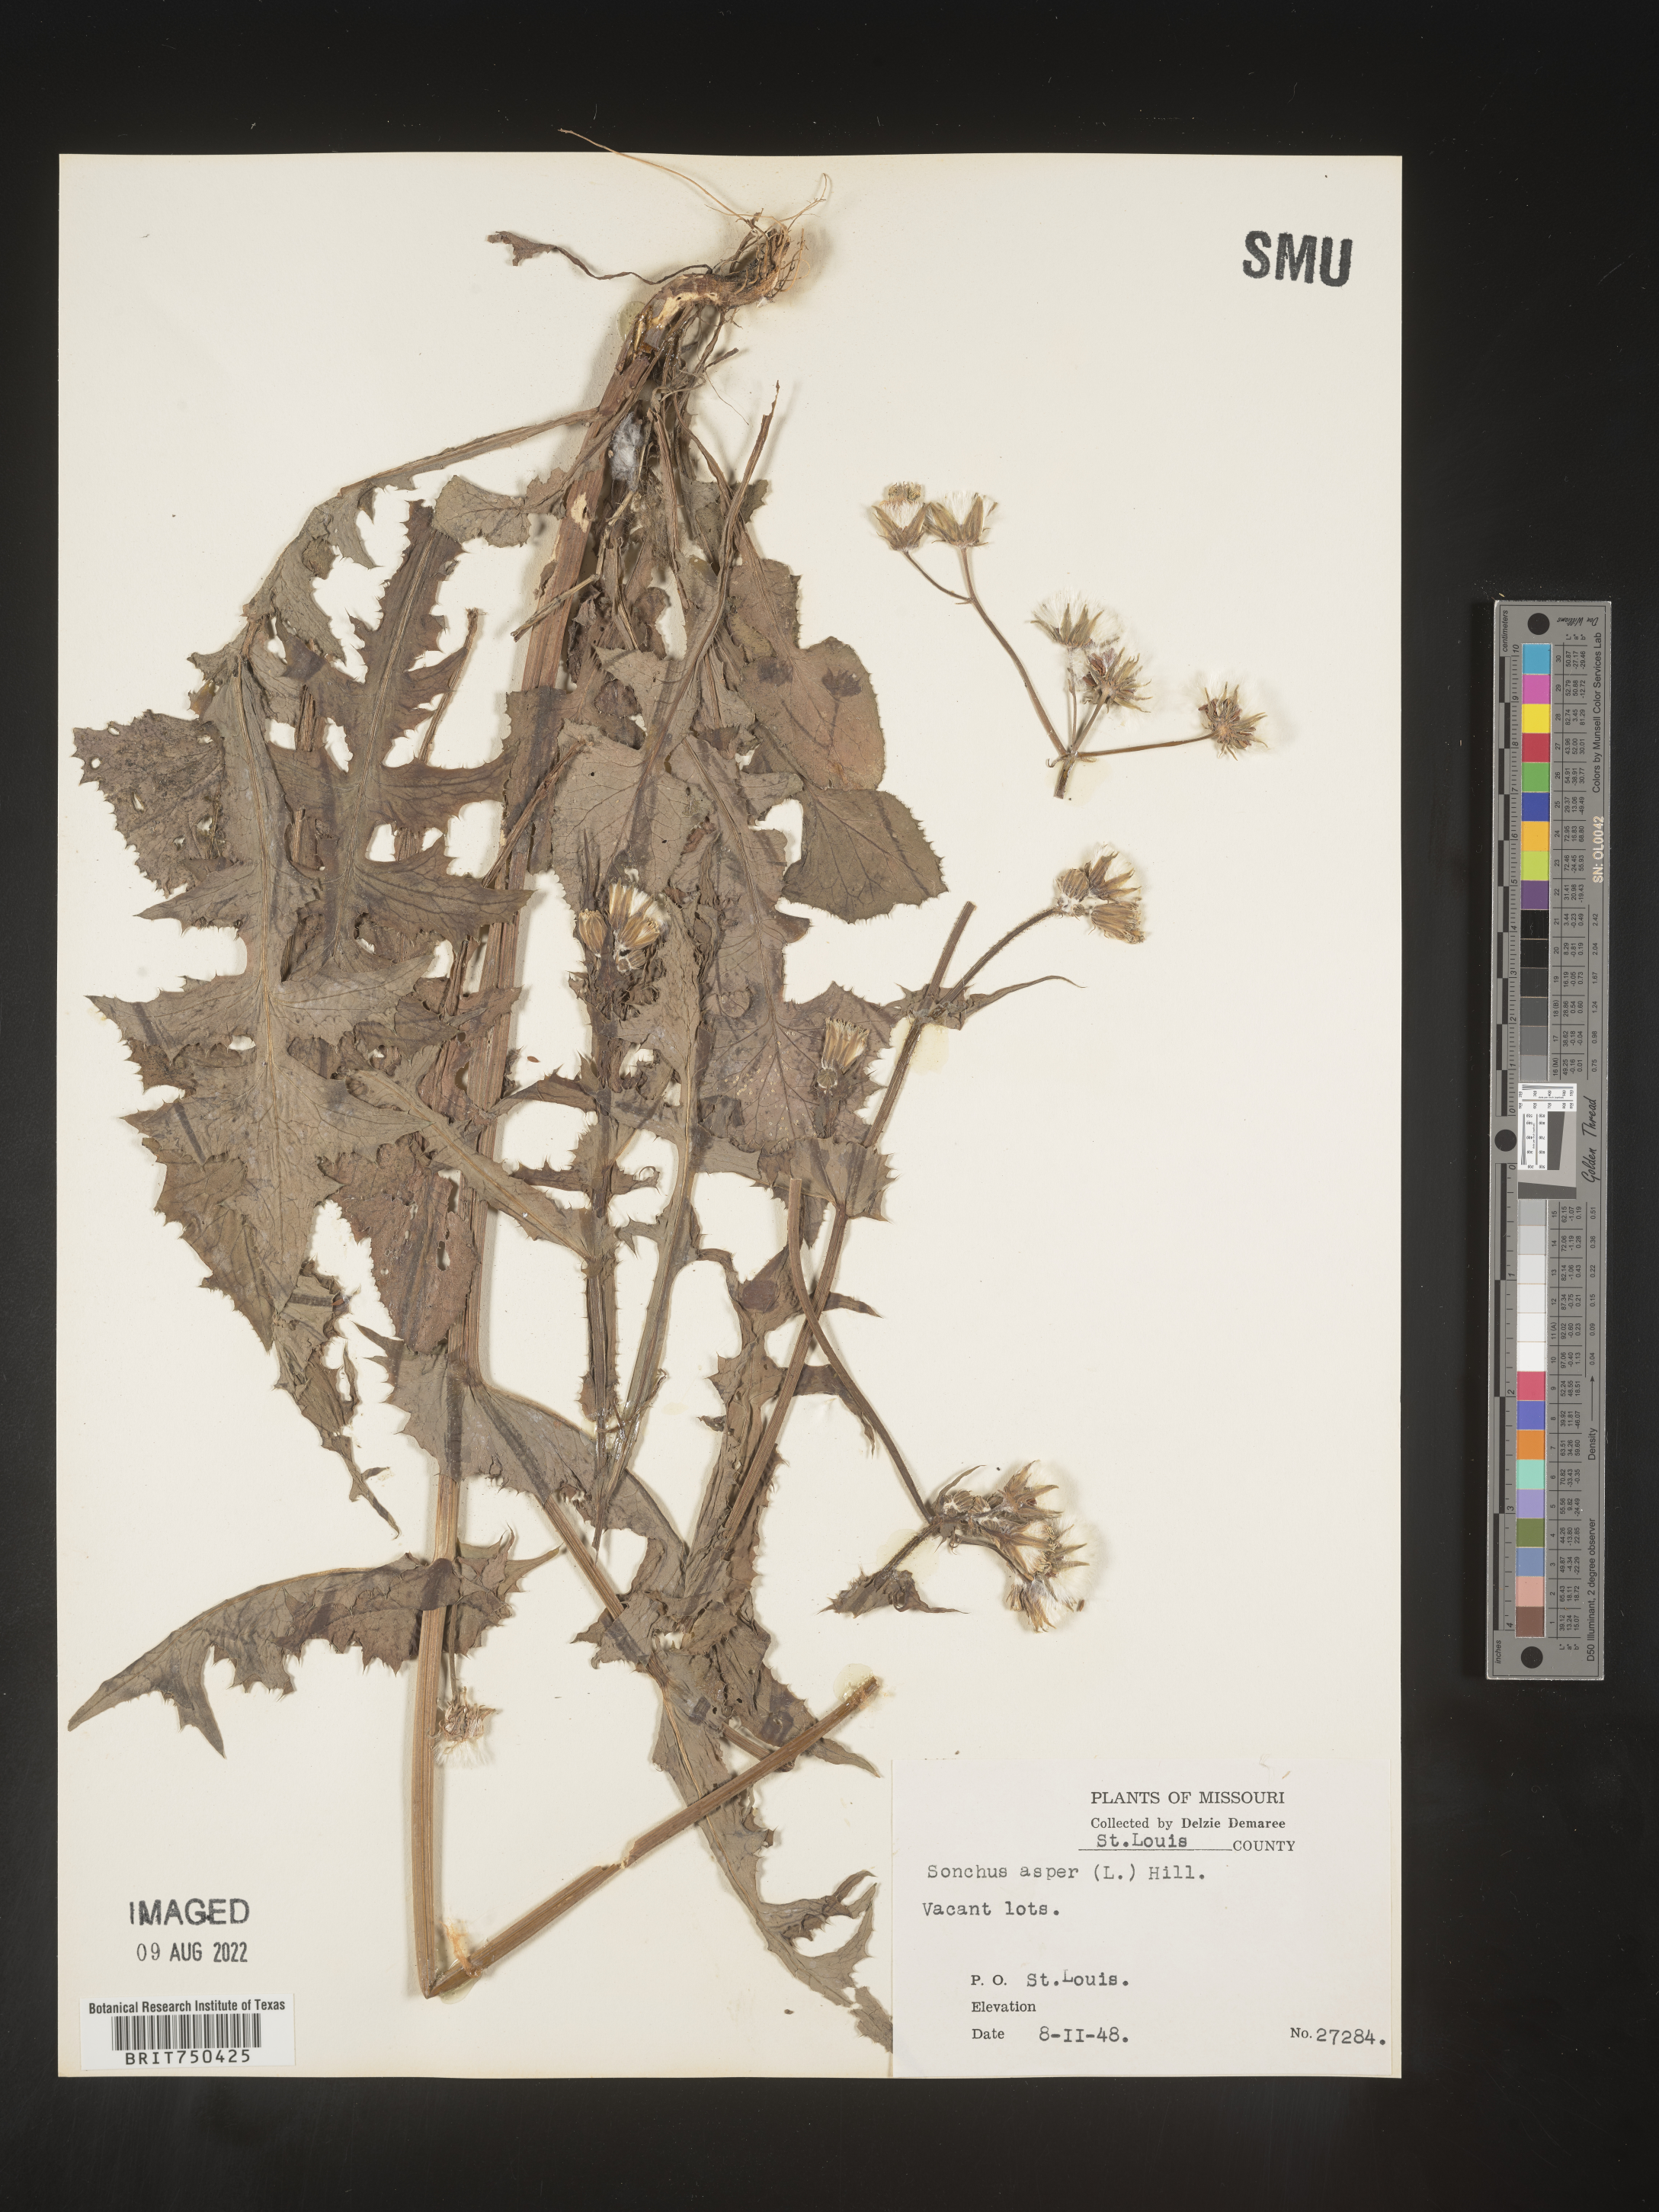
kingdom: Plantae
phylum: Tracheophyta
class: Magnoliopsida
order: Asterales
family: Asteraceae
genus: Sonchus
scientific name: Sonchus asper
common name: Prickly sow-thistle
